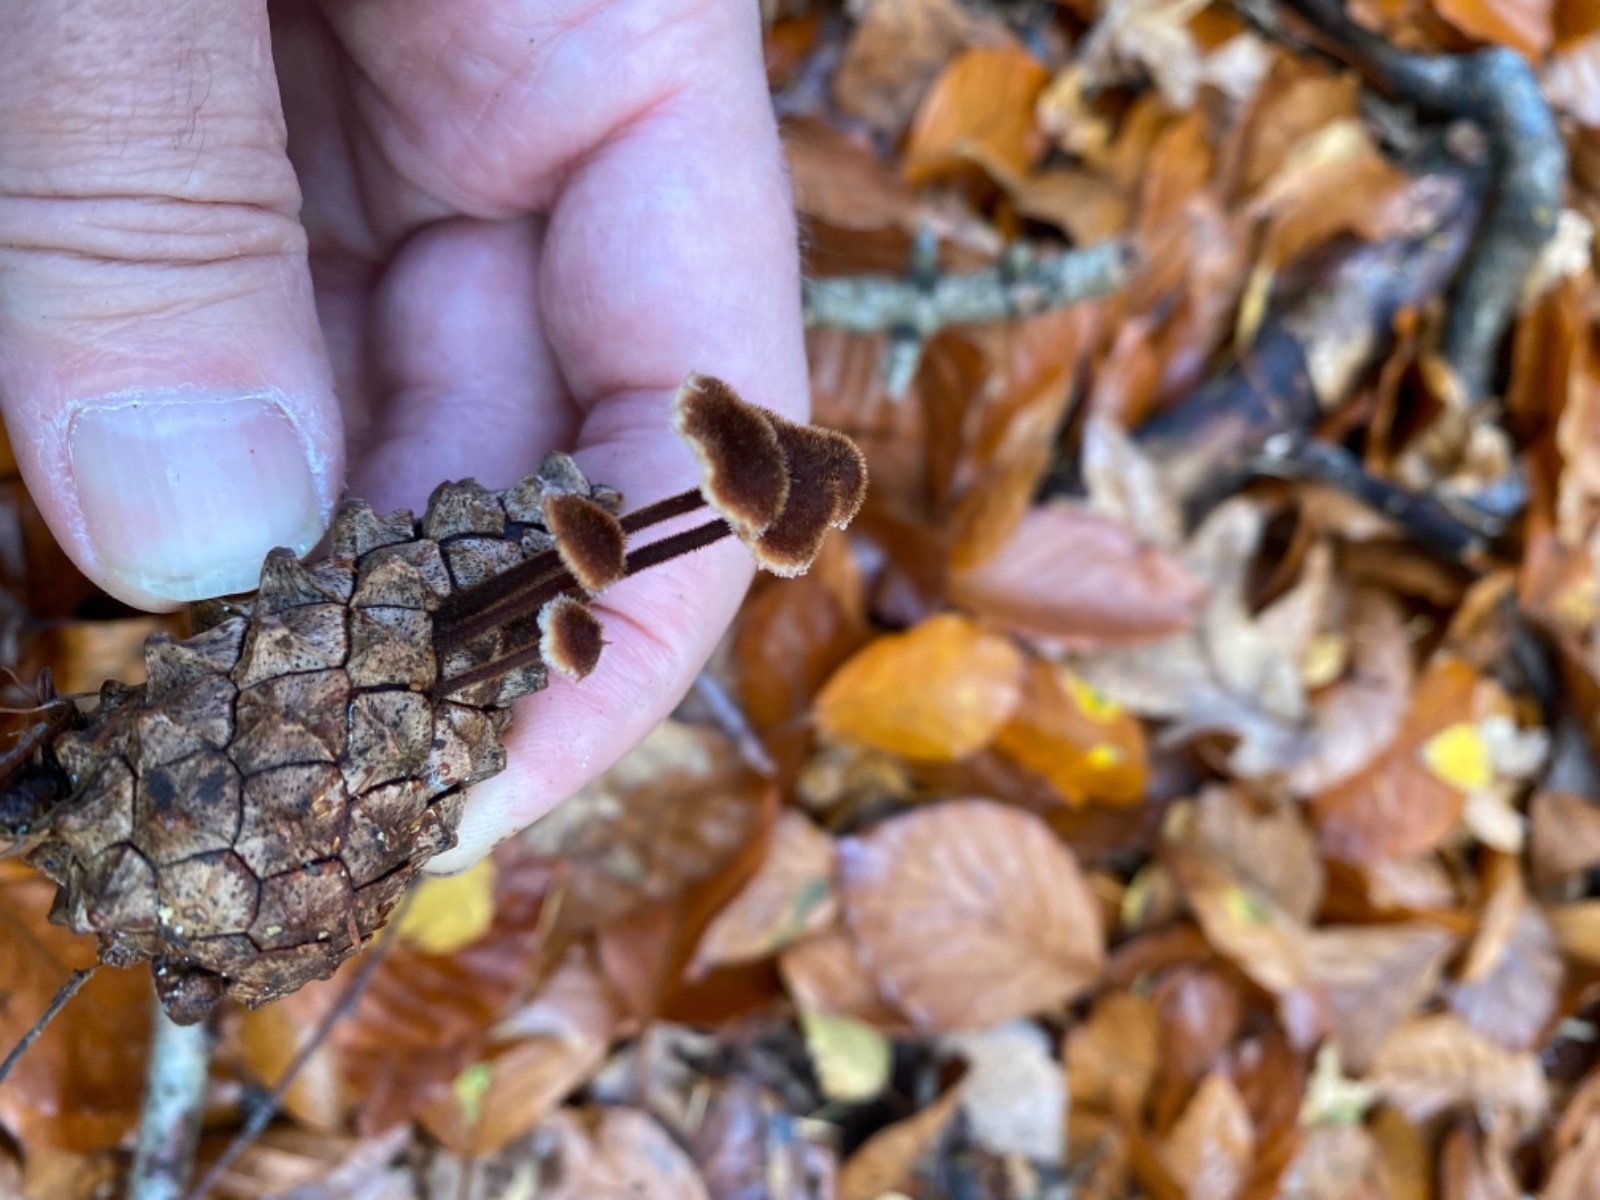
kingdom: Fungi
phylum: Basidiomycota
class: Agaricomycetes
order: Russulales
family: Auriscalpiaceae
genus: Auriscalpium
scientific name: Auriscalpium vulgare
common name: koglepigsvamp
